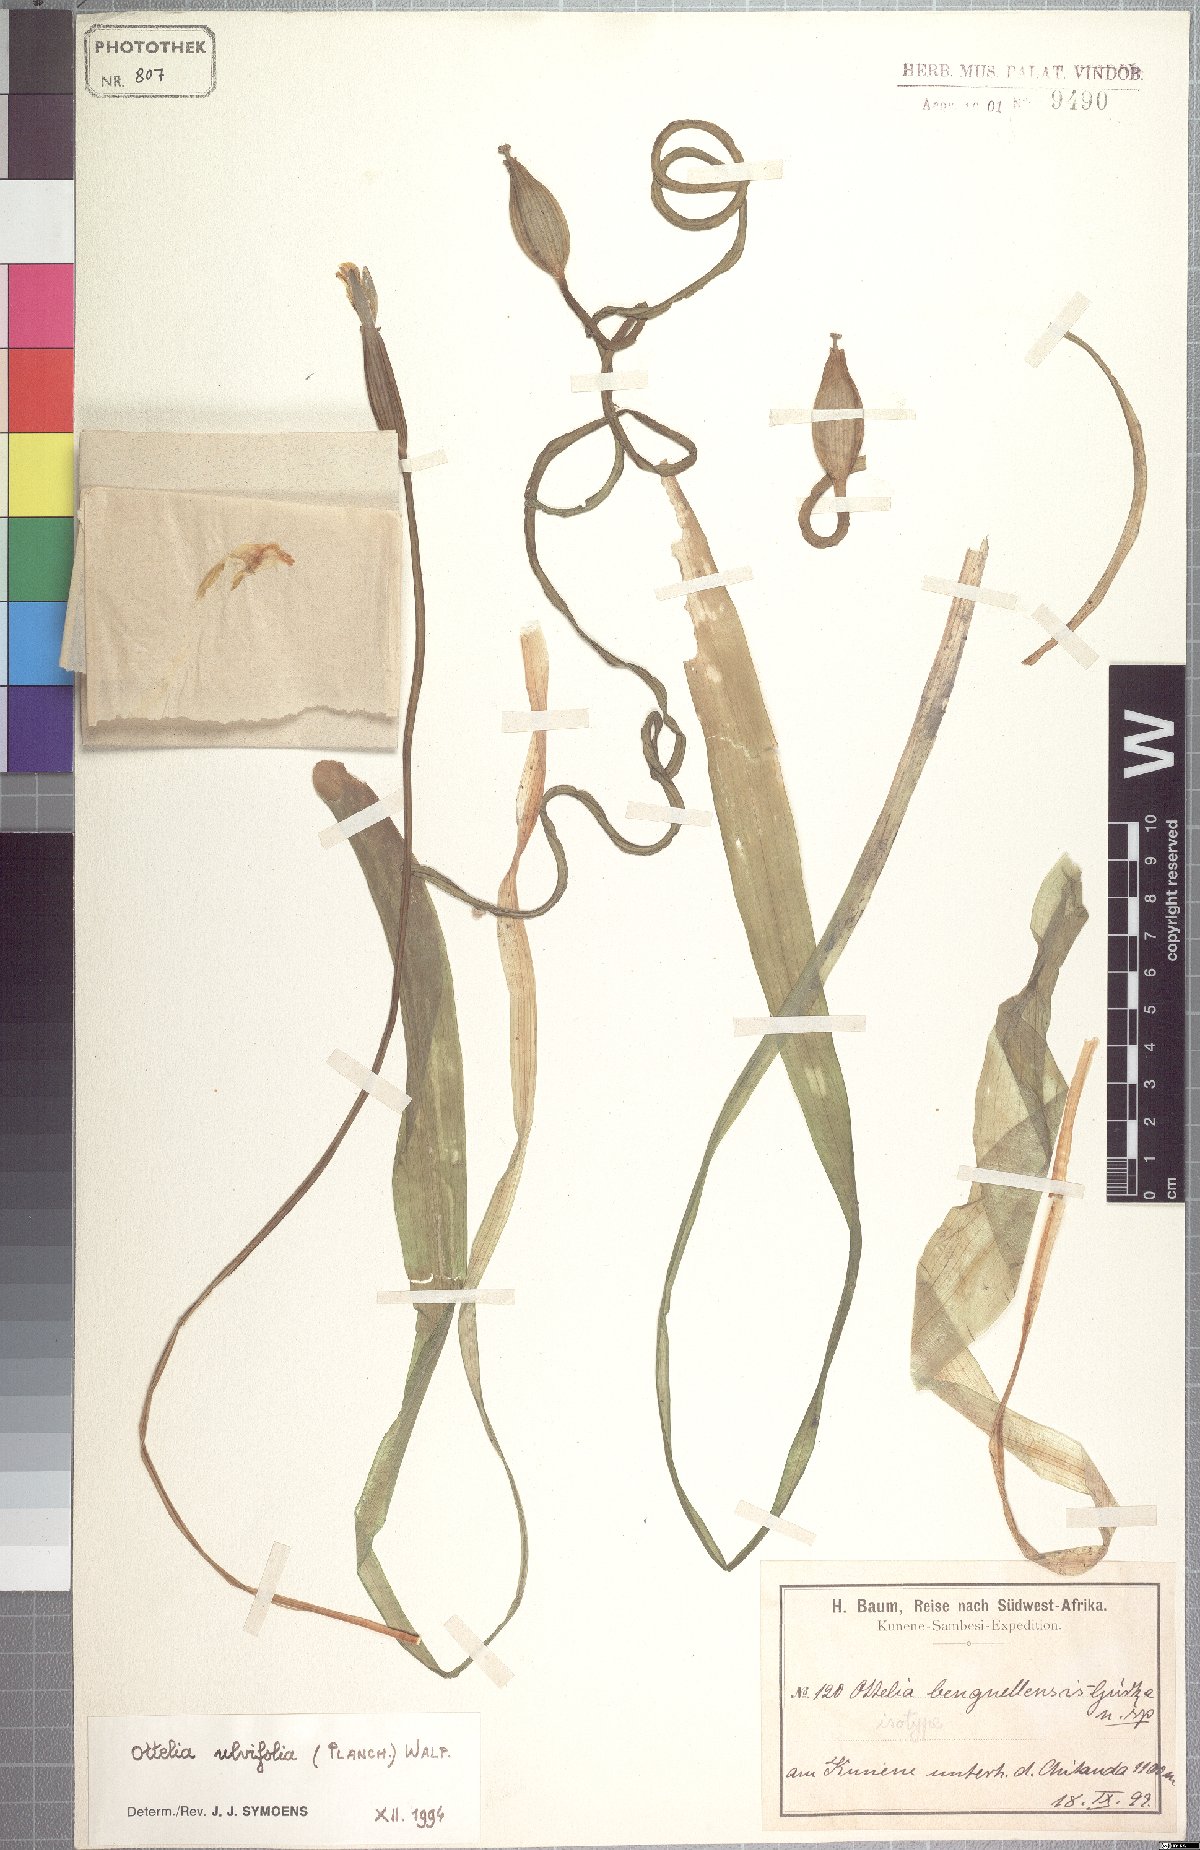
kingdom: Plantae
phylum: Tracheophyta
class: Liliopsida
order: Alismatales
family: Hydrocharitaceae
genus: Ottelia
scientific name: Ottelia ulvifolia
